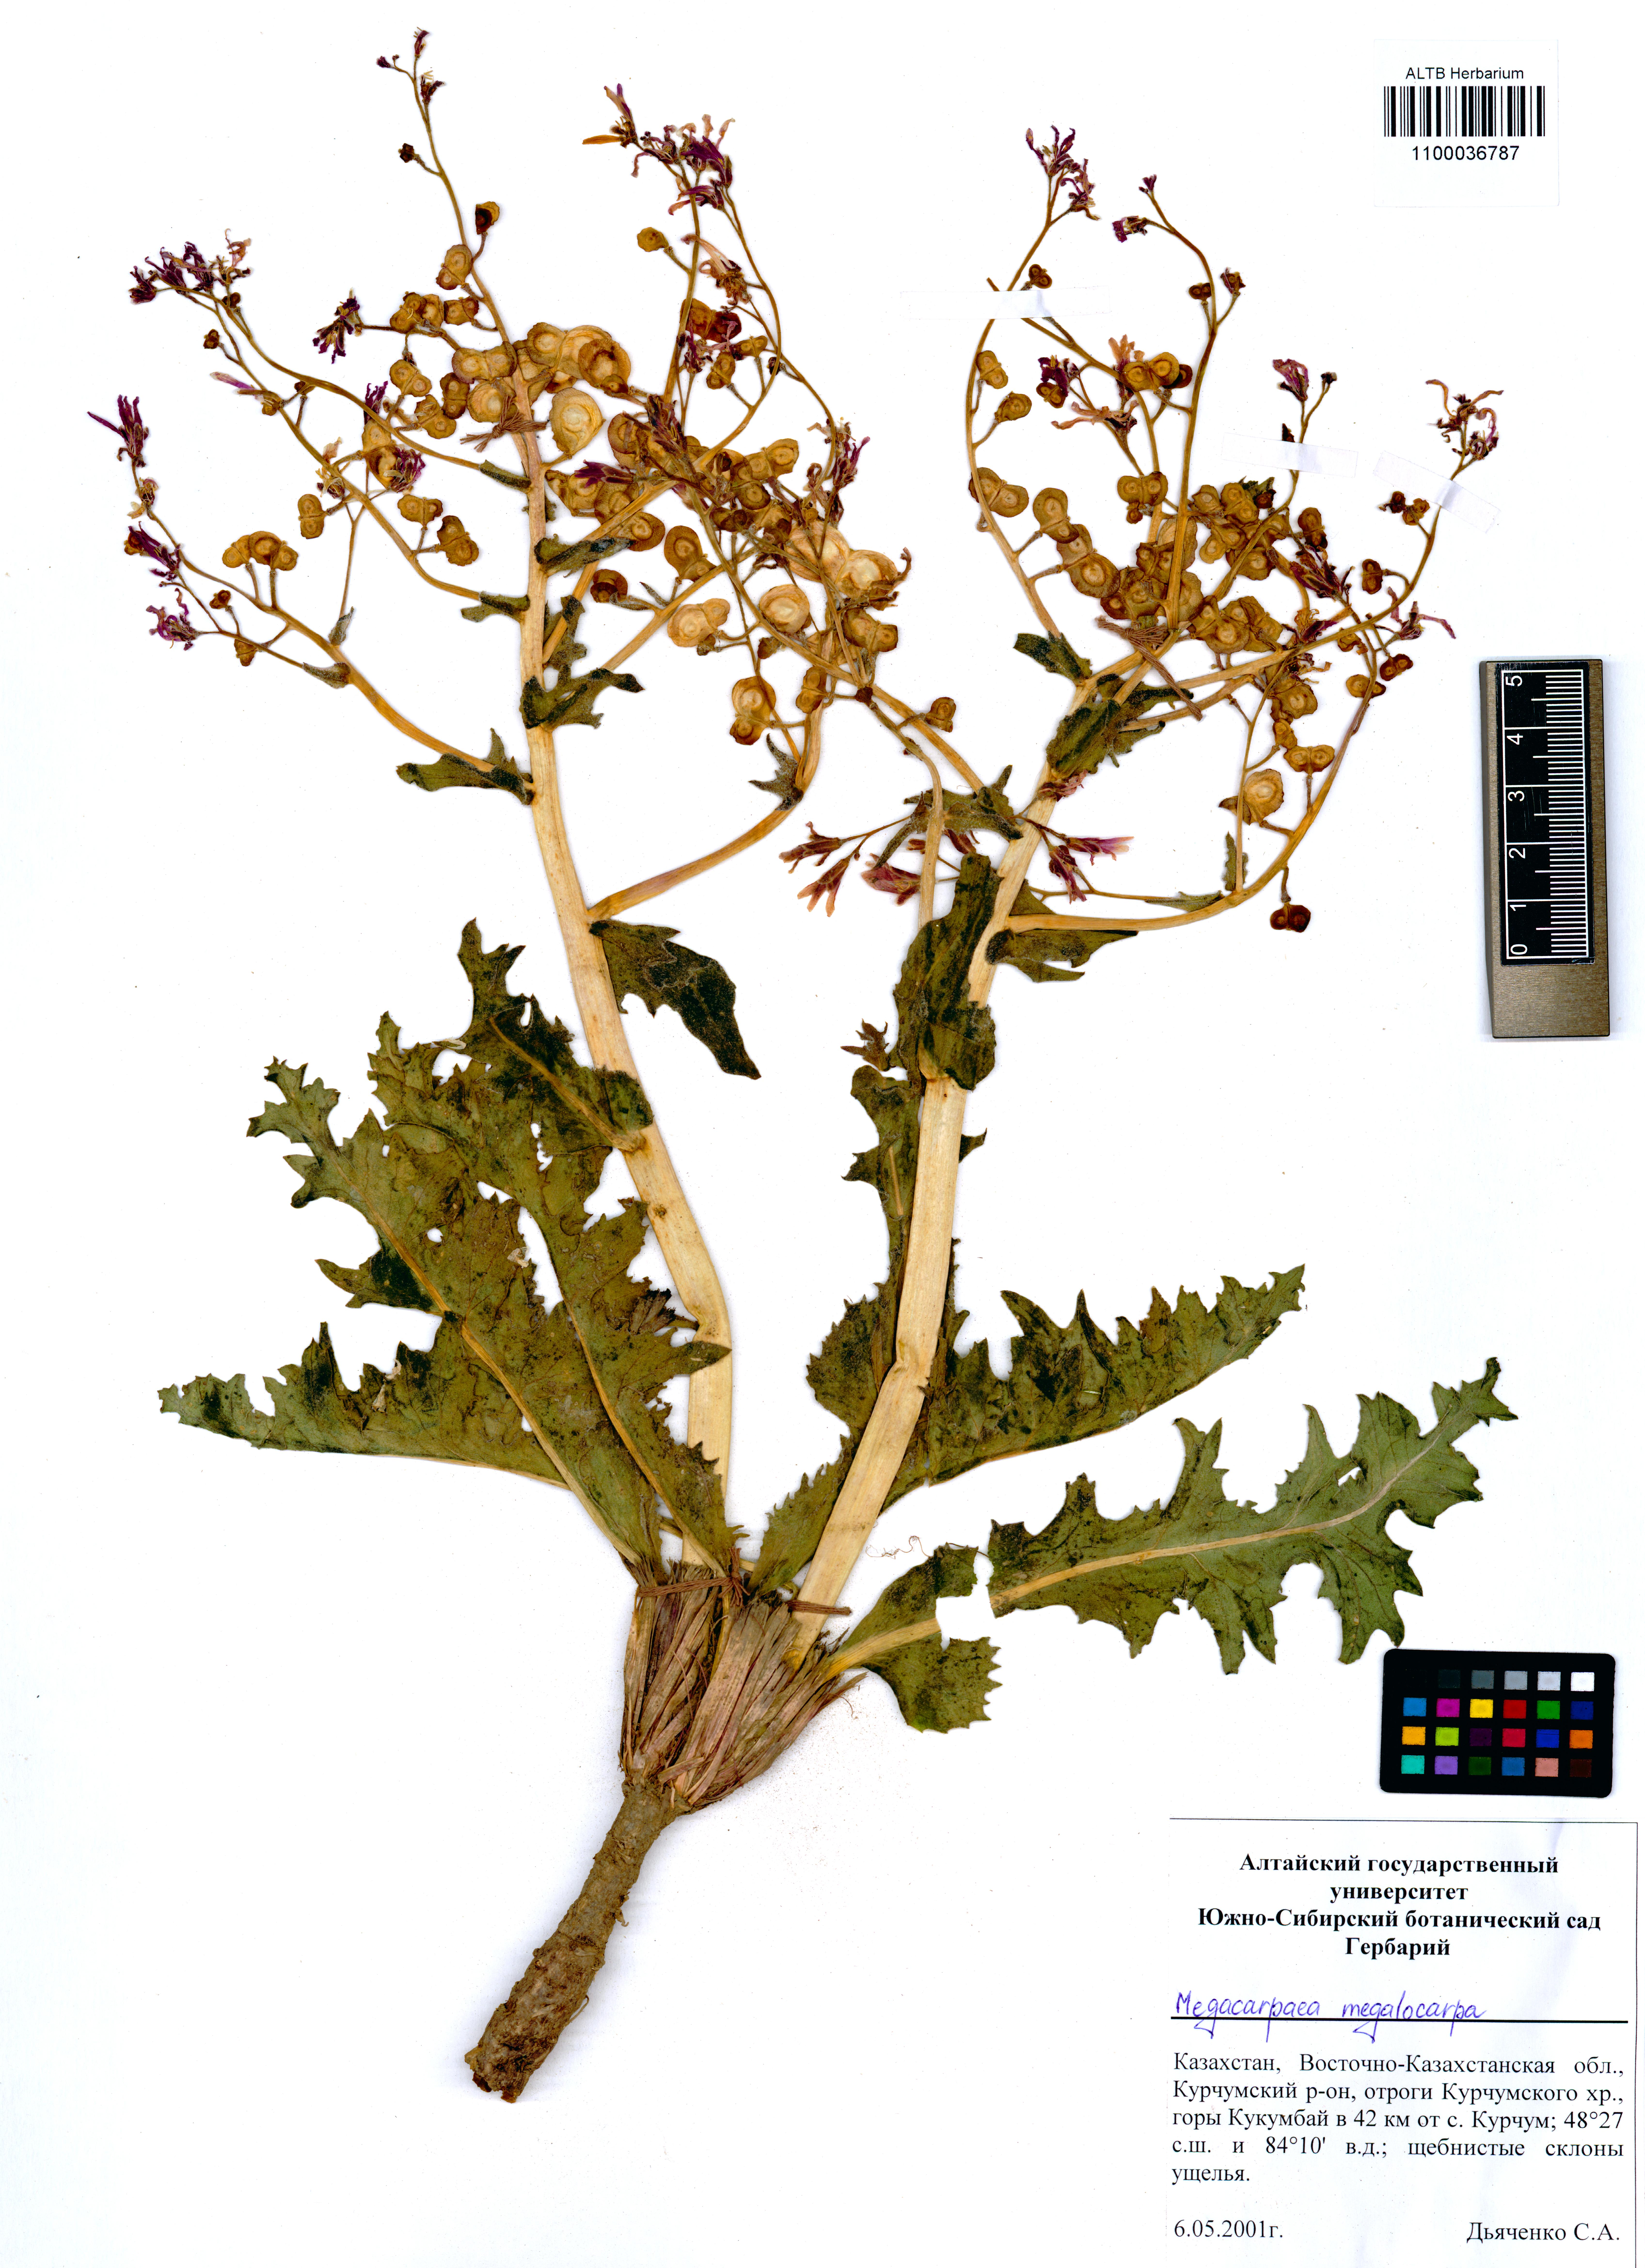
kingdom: Plantae
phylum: Tracheophyta
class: Magnoliopsida
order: Brassicales
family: Brassicaceae
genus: Megacarpaea
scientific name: Megacarpaea megalocarpa
